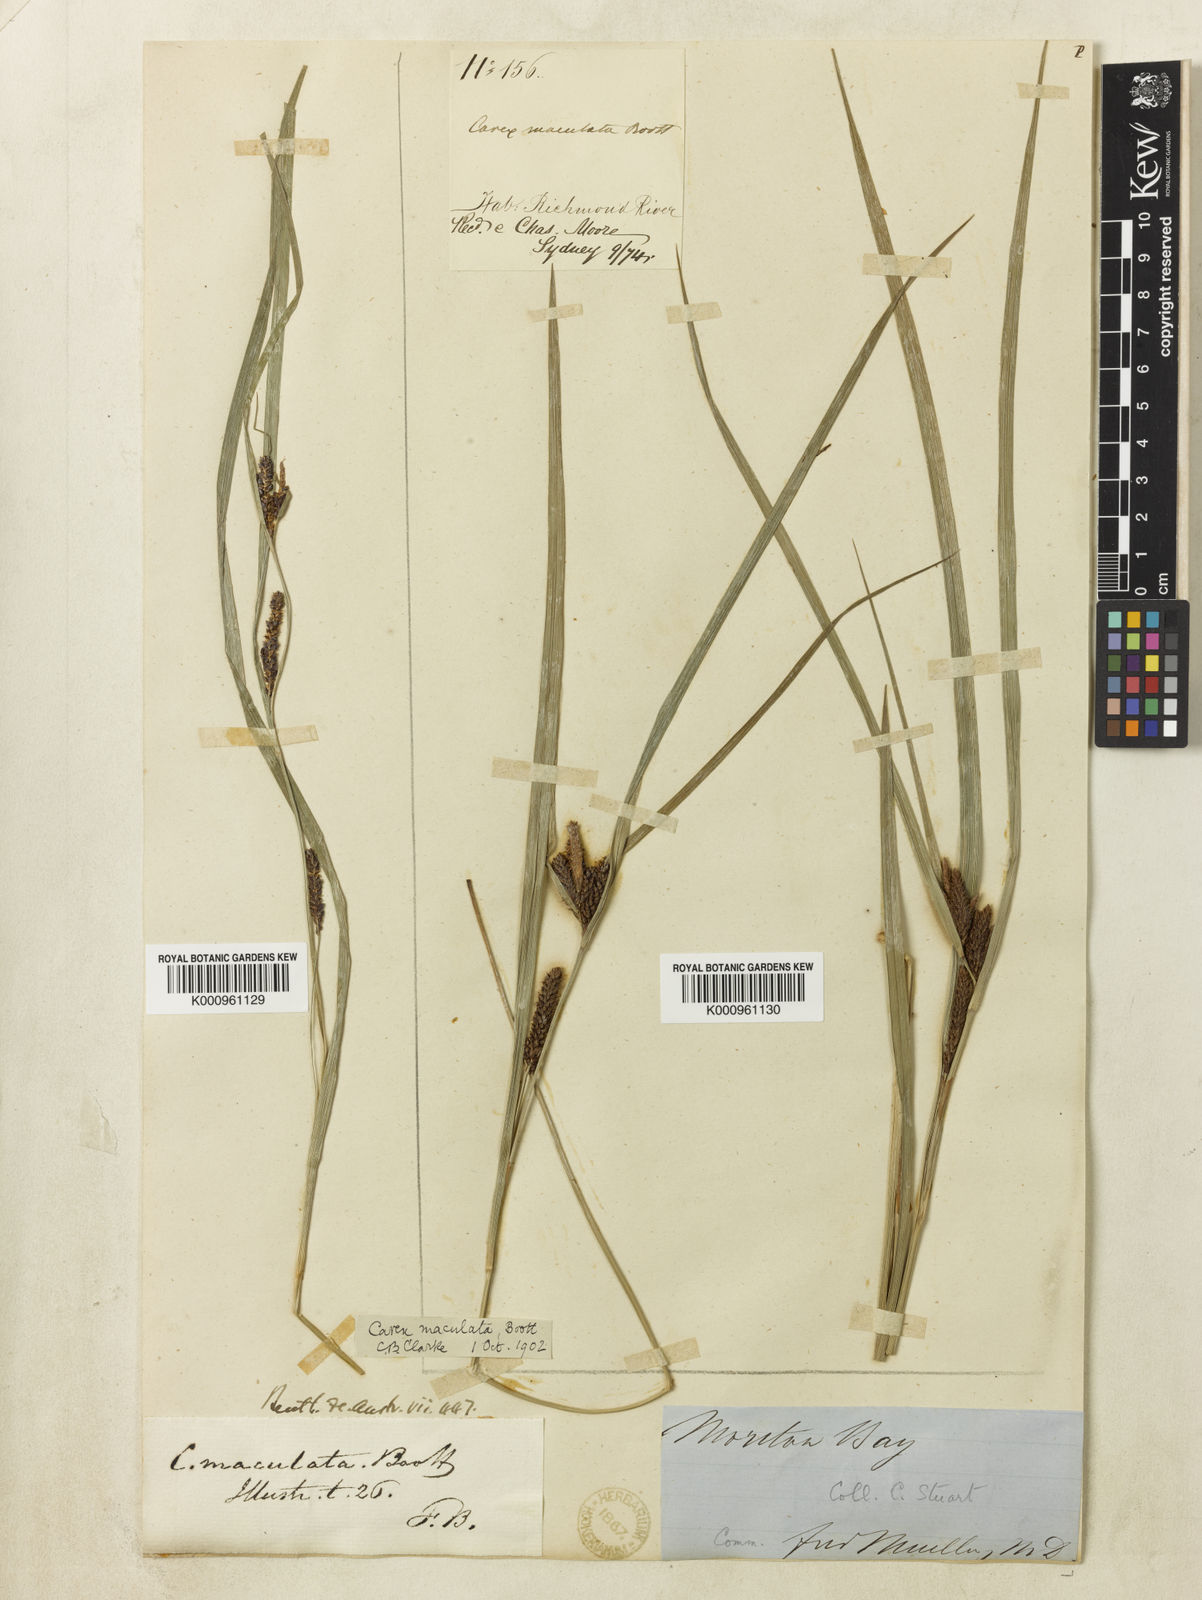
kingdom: Plantae
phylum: Tracheophyta
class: Liliopsida
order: Poales
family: Cyperaceae
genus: Carex
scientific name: Carex maculata
